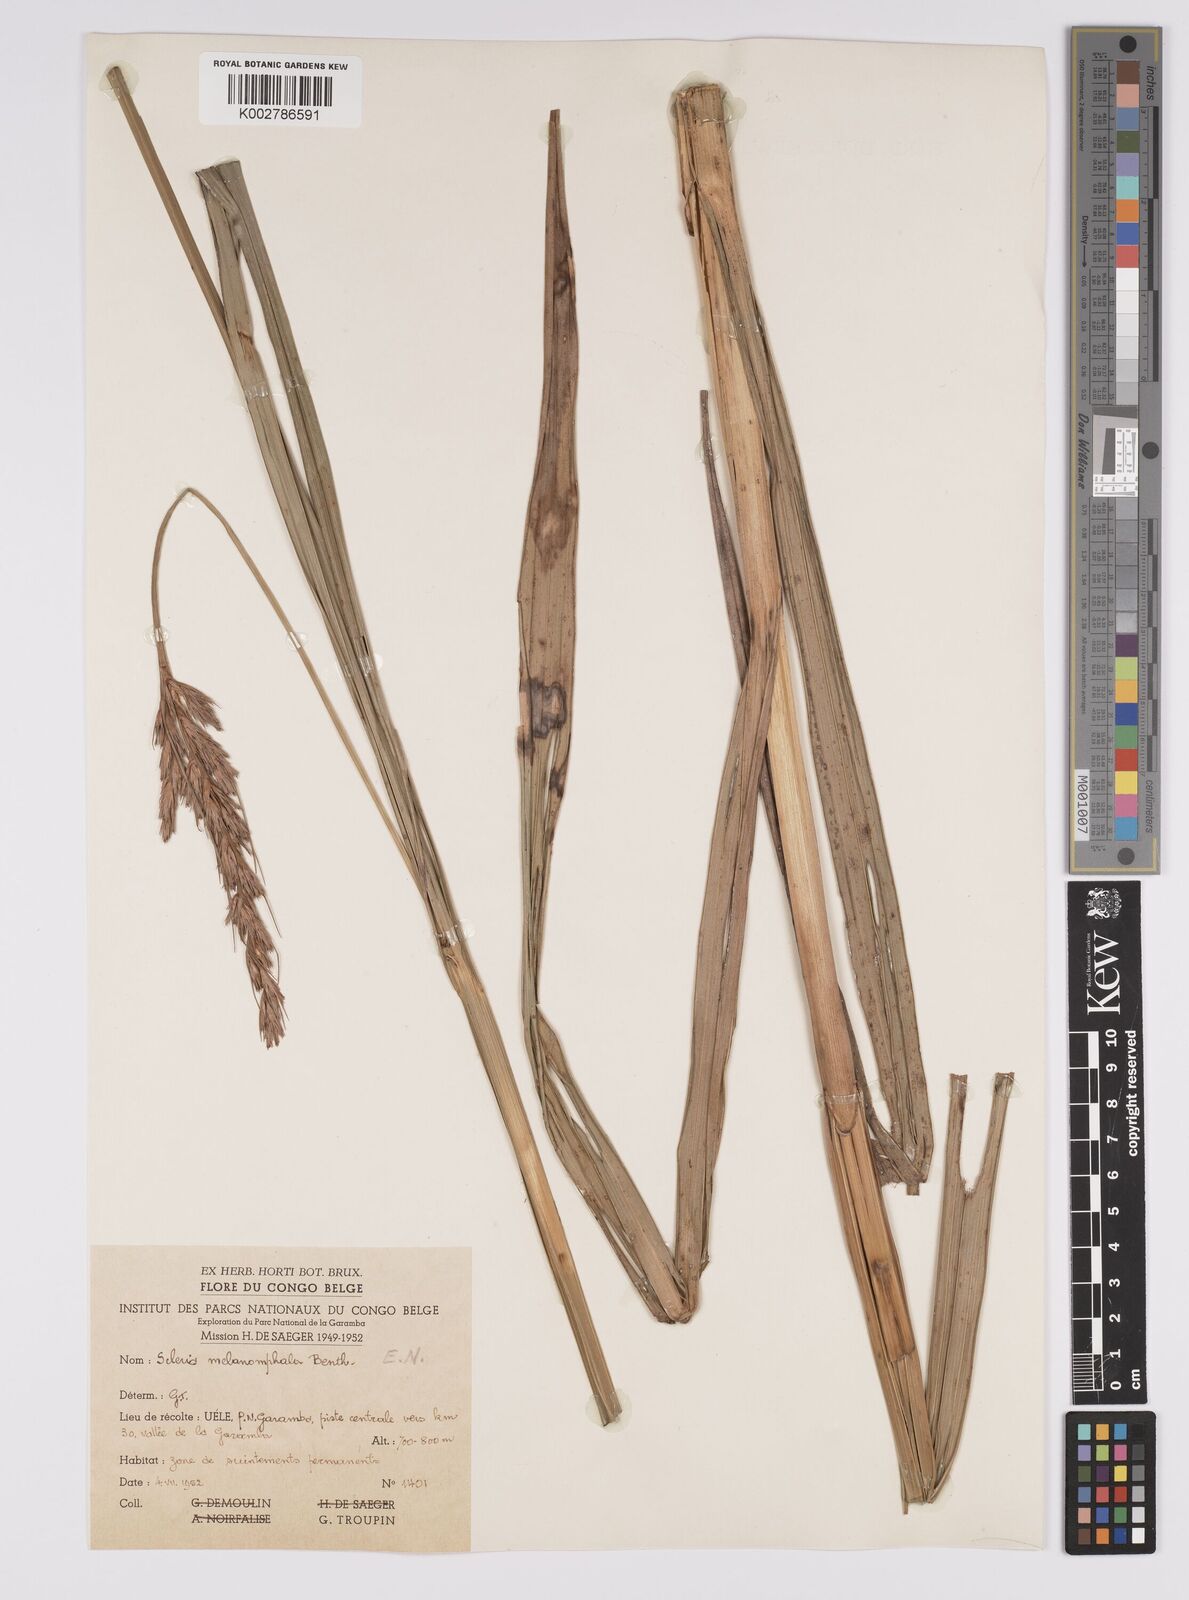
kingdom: Plantae
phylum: Tracheophyta
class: Liliopsida
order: Poales
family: Cyperaceae
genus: Scleria
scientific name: Scleria melanomphala
